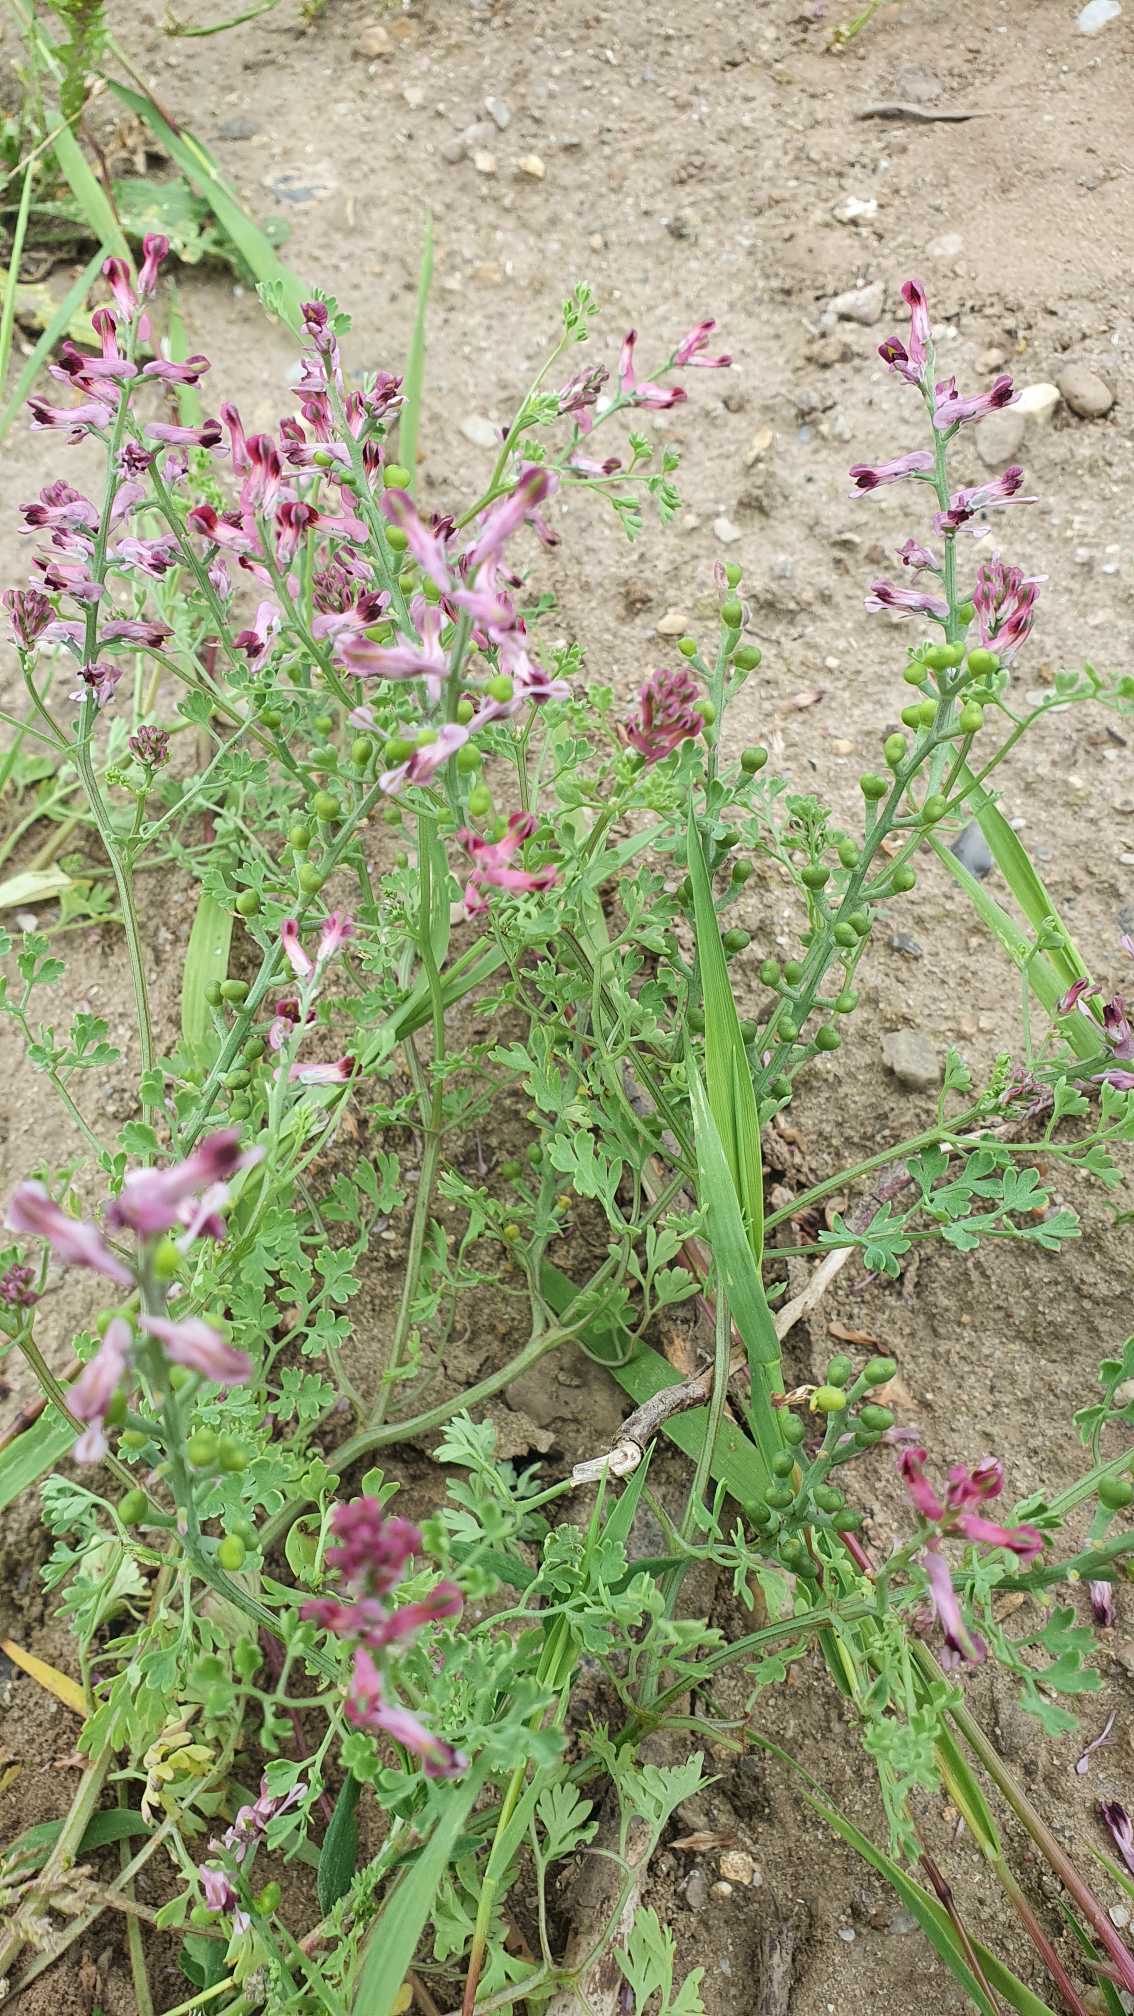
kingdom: Plantae
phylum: Tracheophyta
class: Magnoliopsida
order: Ranunculales
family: Papaveraceae
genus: Fumaria
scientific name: Fumaria officinalis
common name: Læge-jordrøg
